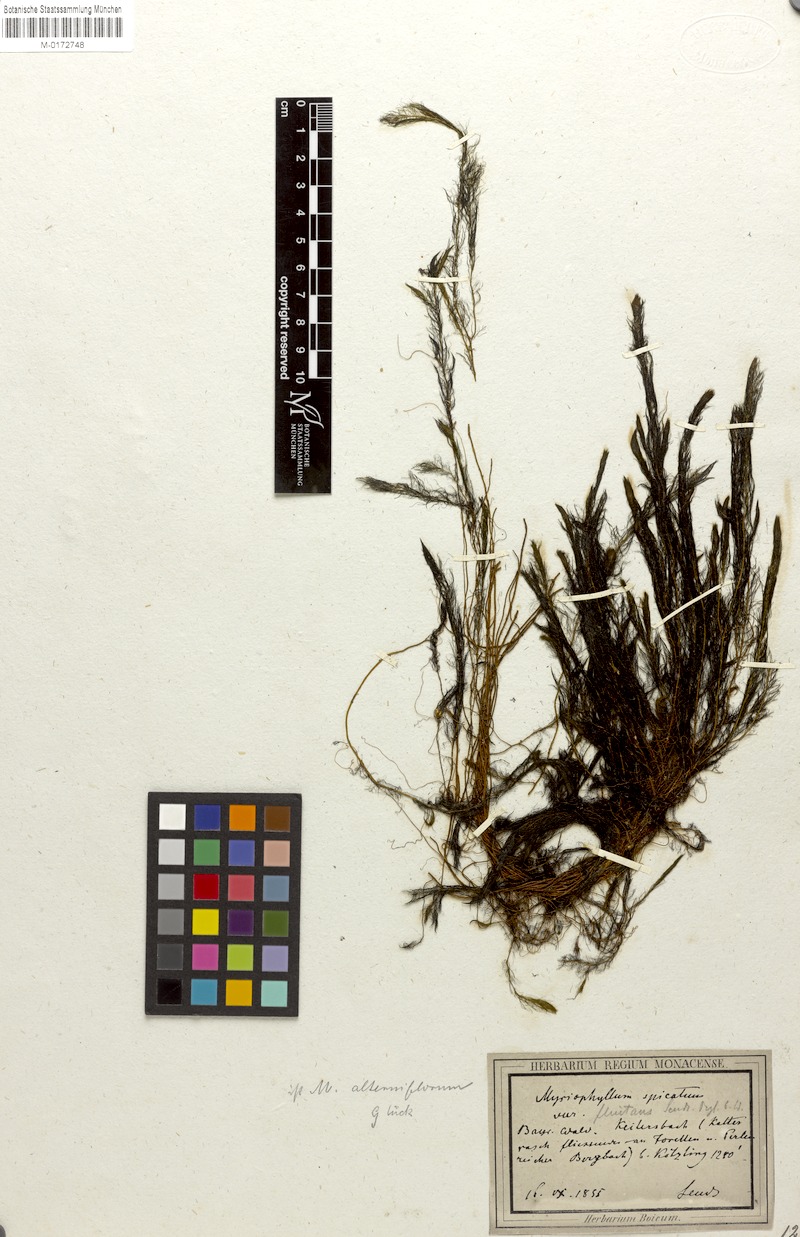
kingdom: Plantae
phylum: Tracheophyta
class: Magnoliopsida
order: Saxifragales
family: Haloragaceae
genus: Myriophyllum
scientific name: Myriophyllum alterniflorum
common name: Alternate water-milfoil
